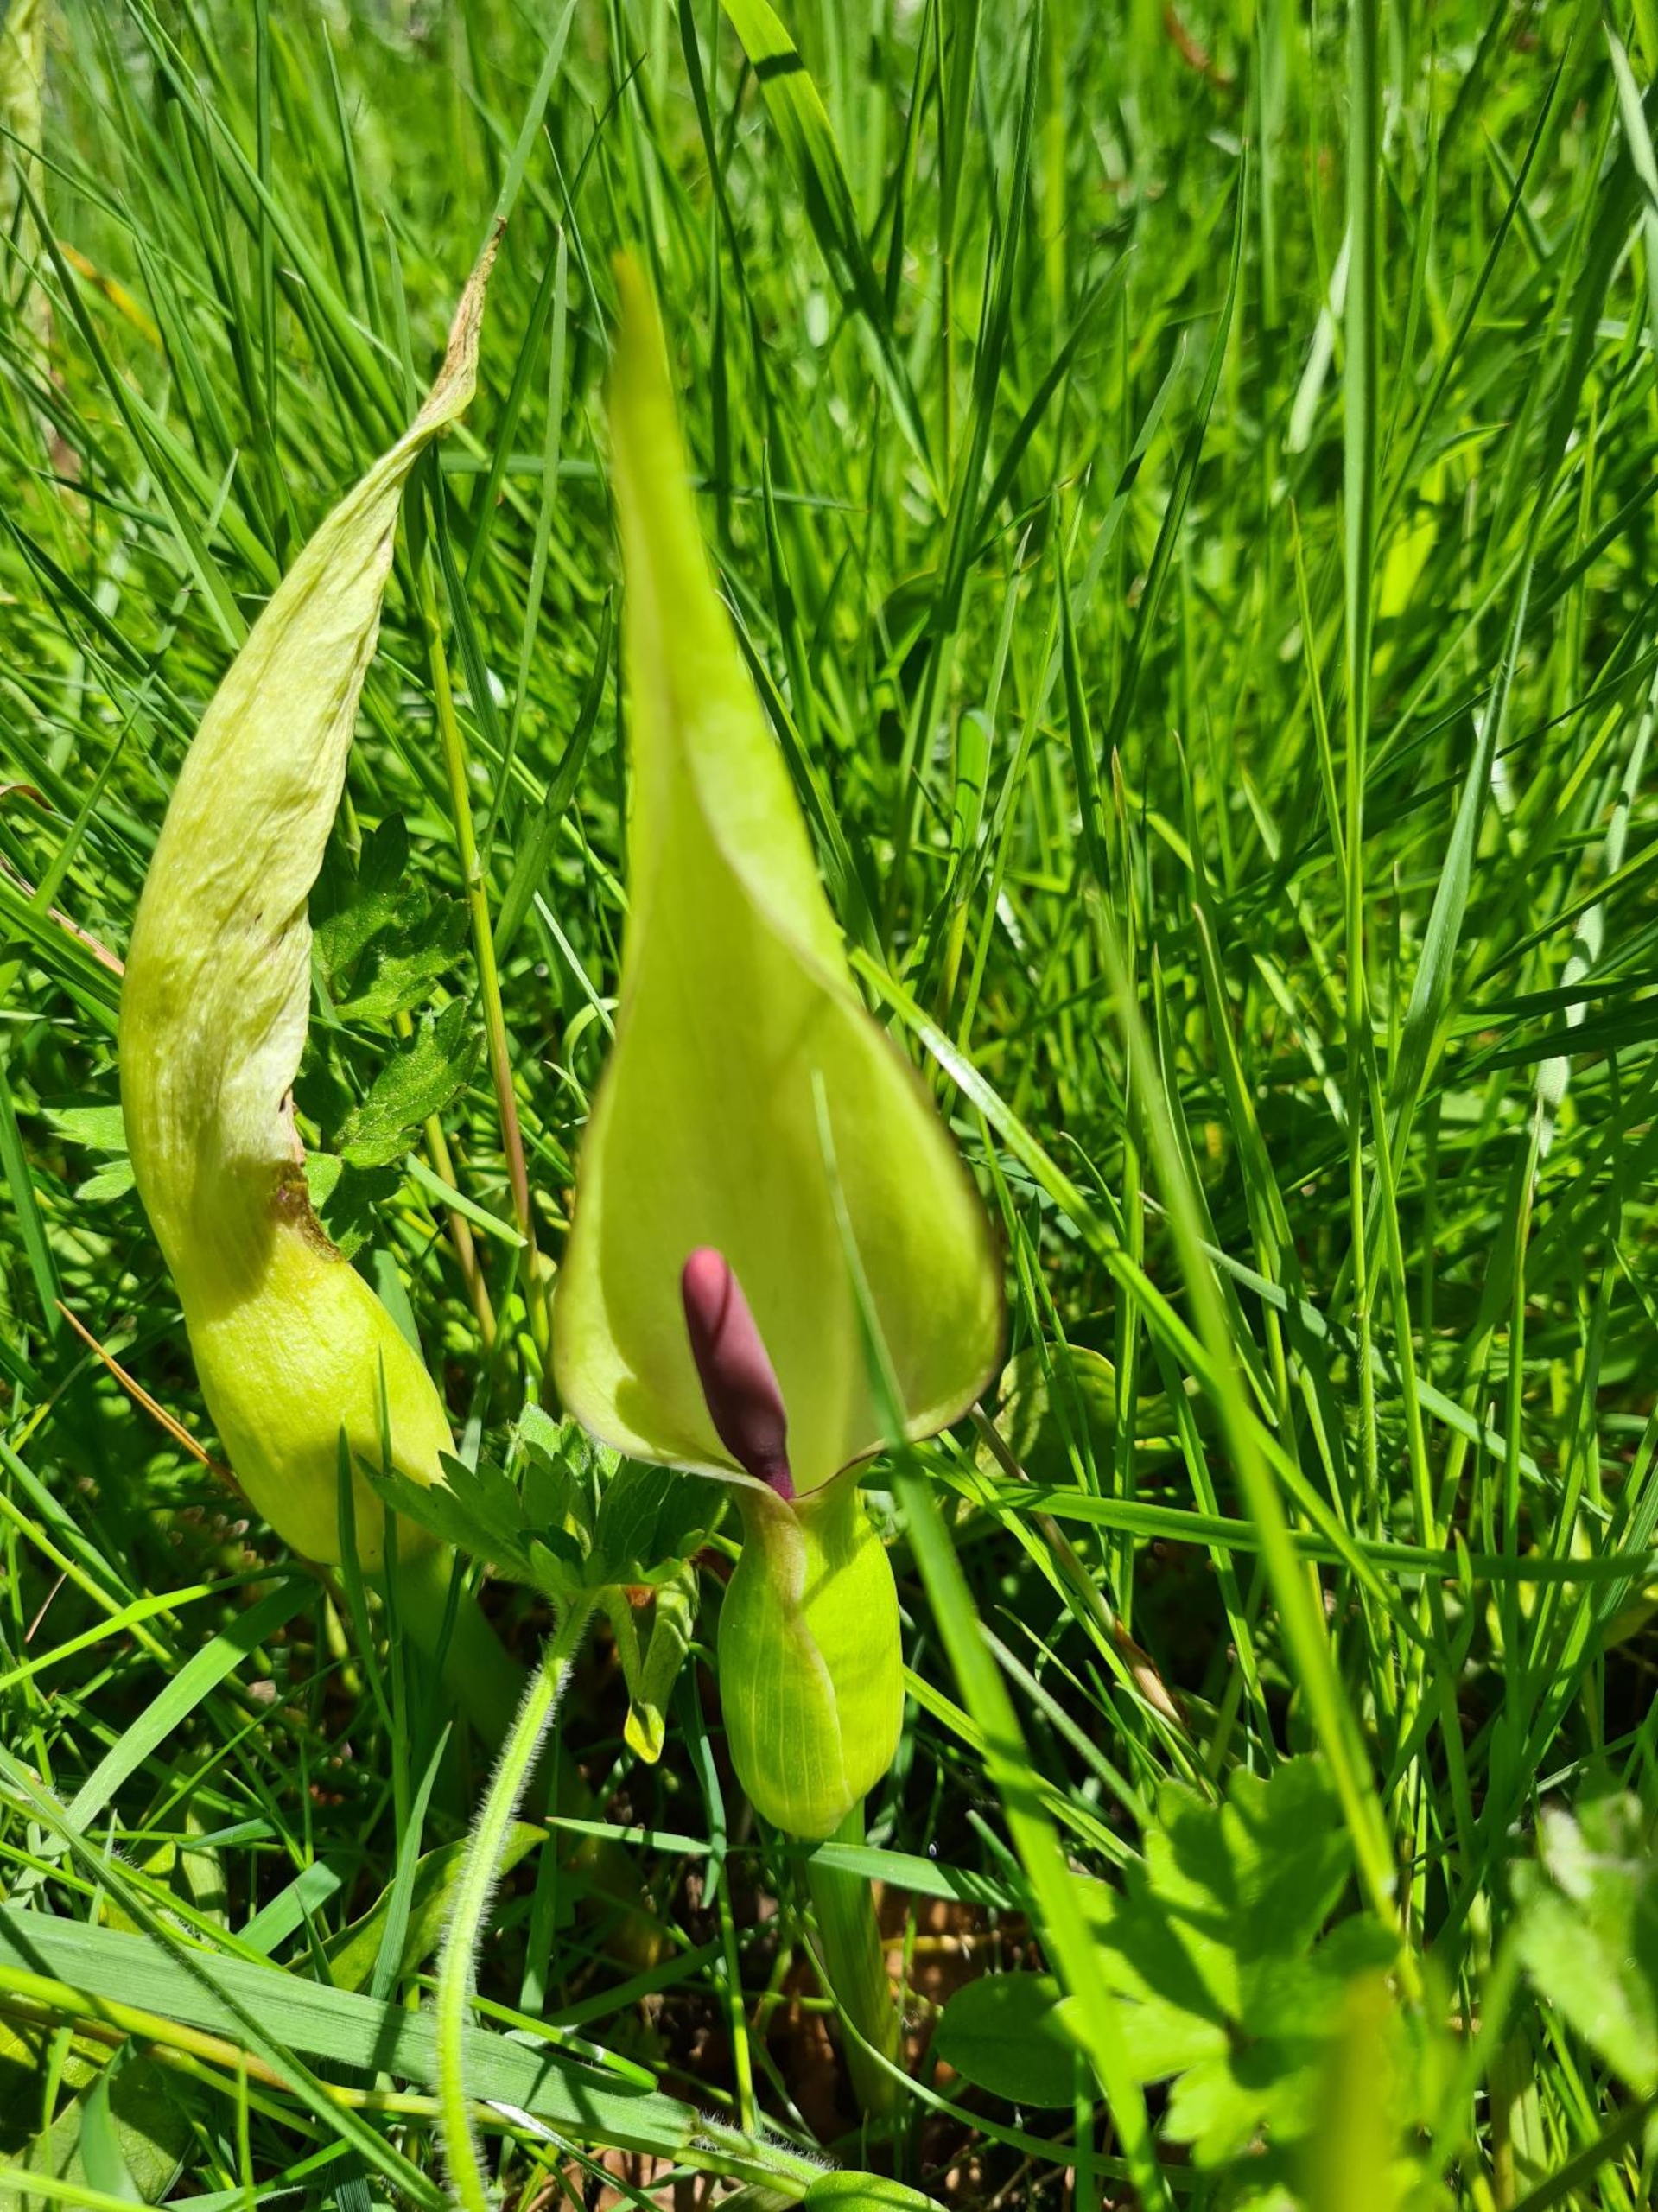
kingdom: Plantae
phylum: Tracheophyta
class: Liliopsida
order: Alismatales
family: Araceae
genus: Arum
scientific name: Arum maculatum
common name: Plettet arum
